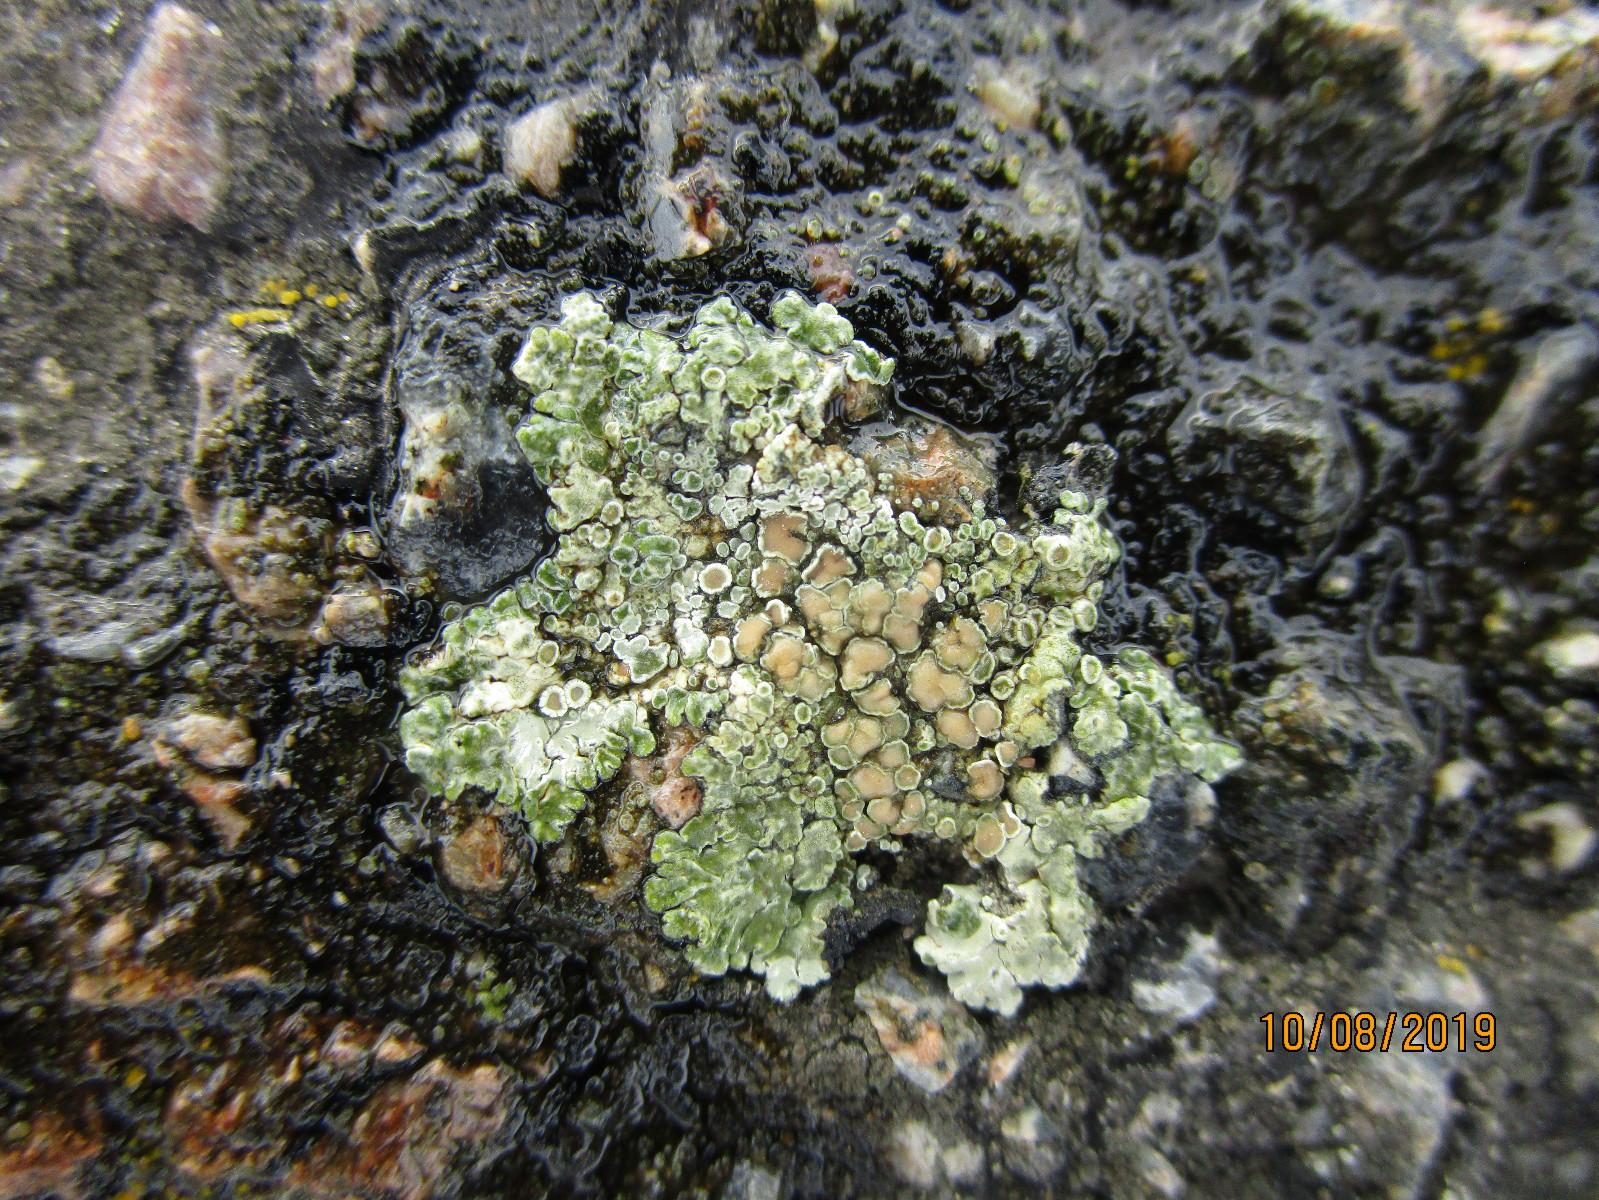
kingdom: Fungi
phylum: Ascomycota
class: Lecanoromycetes
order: Lecanorales
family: Lecanoraceae
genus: Protoparmeliopsis
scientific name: Protoparmeliopsis muralis
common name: randfliget kantskivelav
